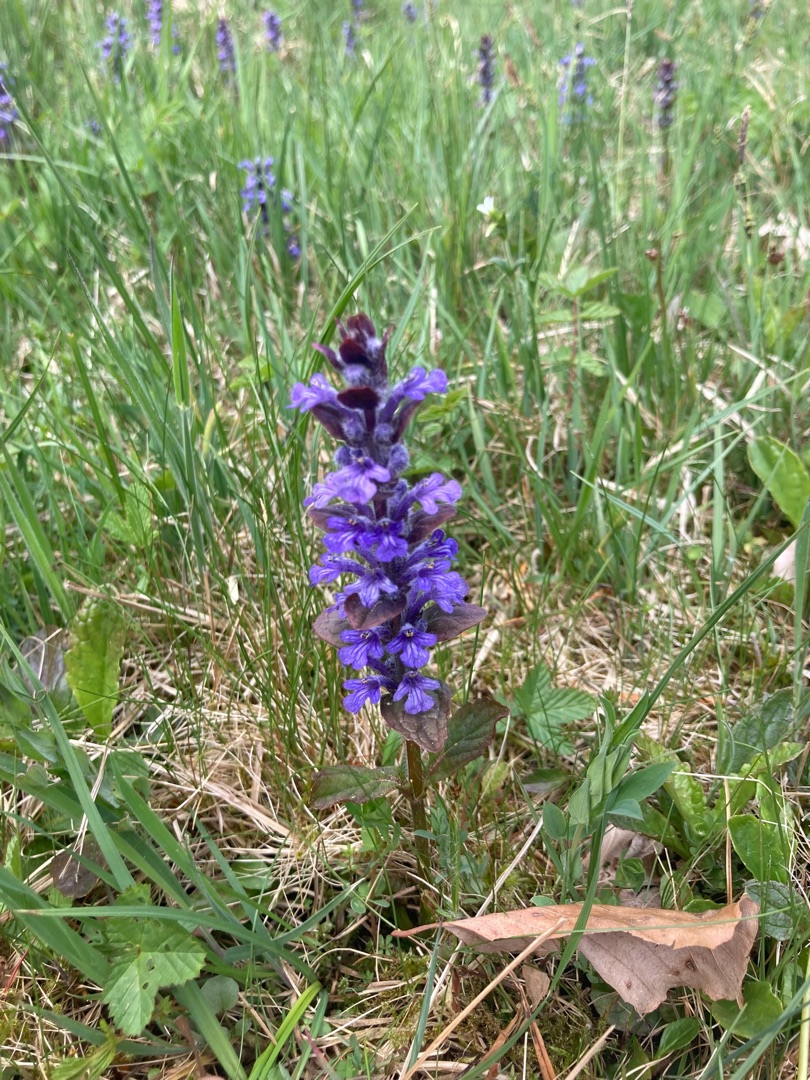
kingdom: Plantae
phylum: Tracheophyta
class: Magnoliopsida
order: Lamiales
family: Lamiaceae
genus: Ajuga
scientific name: Ajuga reptans
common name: Krybende læbeløs
